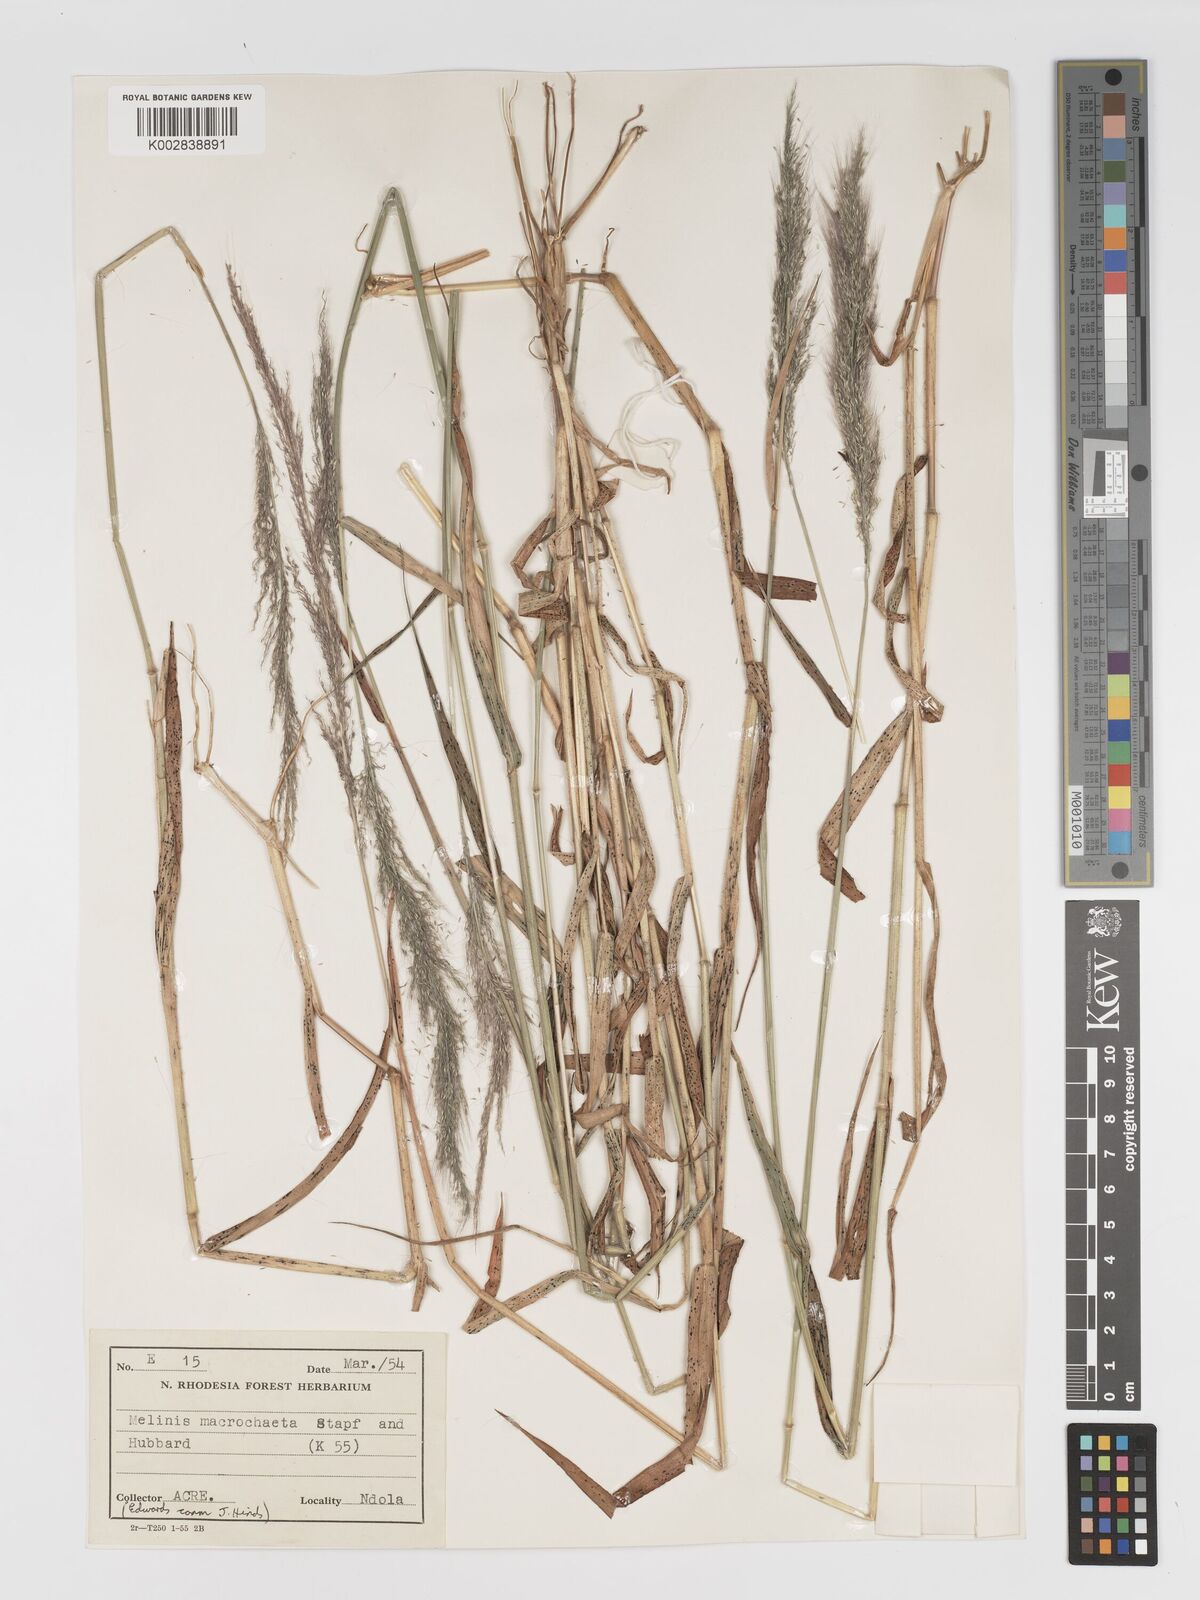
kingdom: Plantae
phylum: Tracheophyta
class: Liliopsida
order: Poales
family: Poaceae
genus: Melinis
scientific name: Melinis macrochaeta
